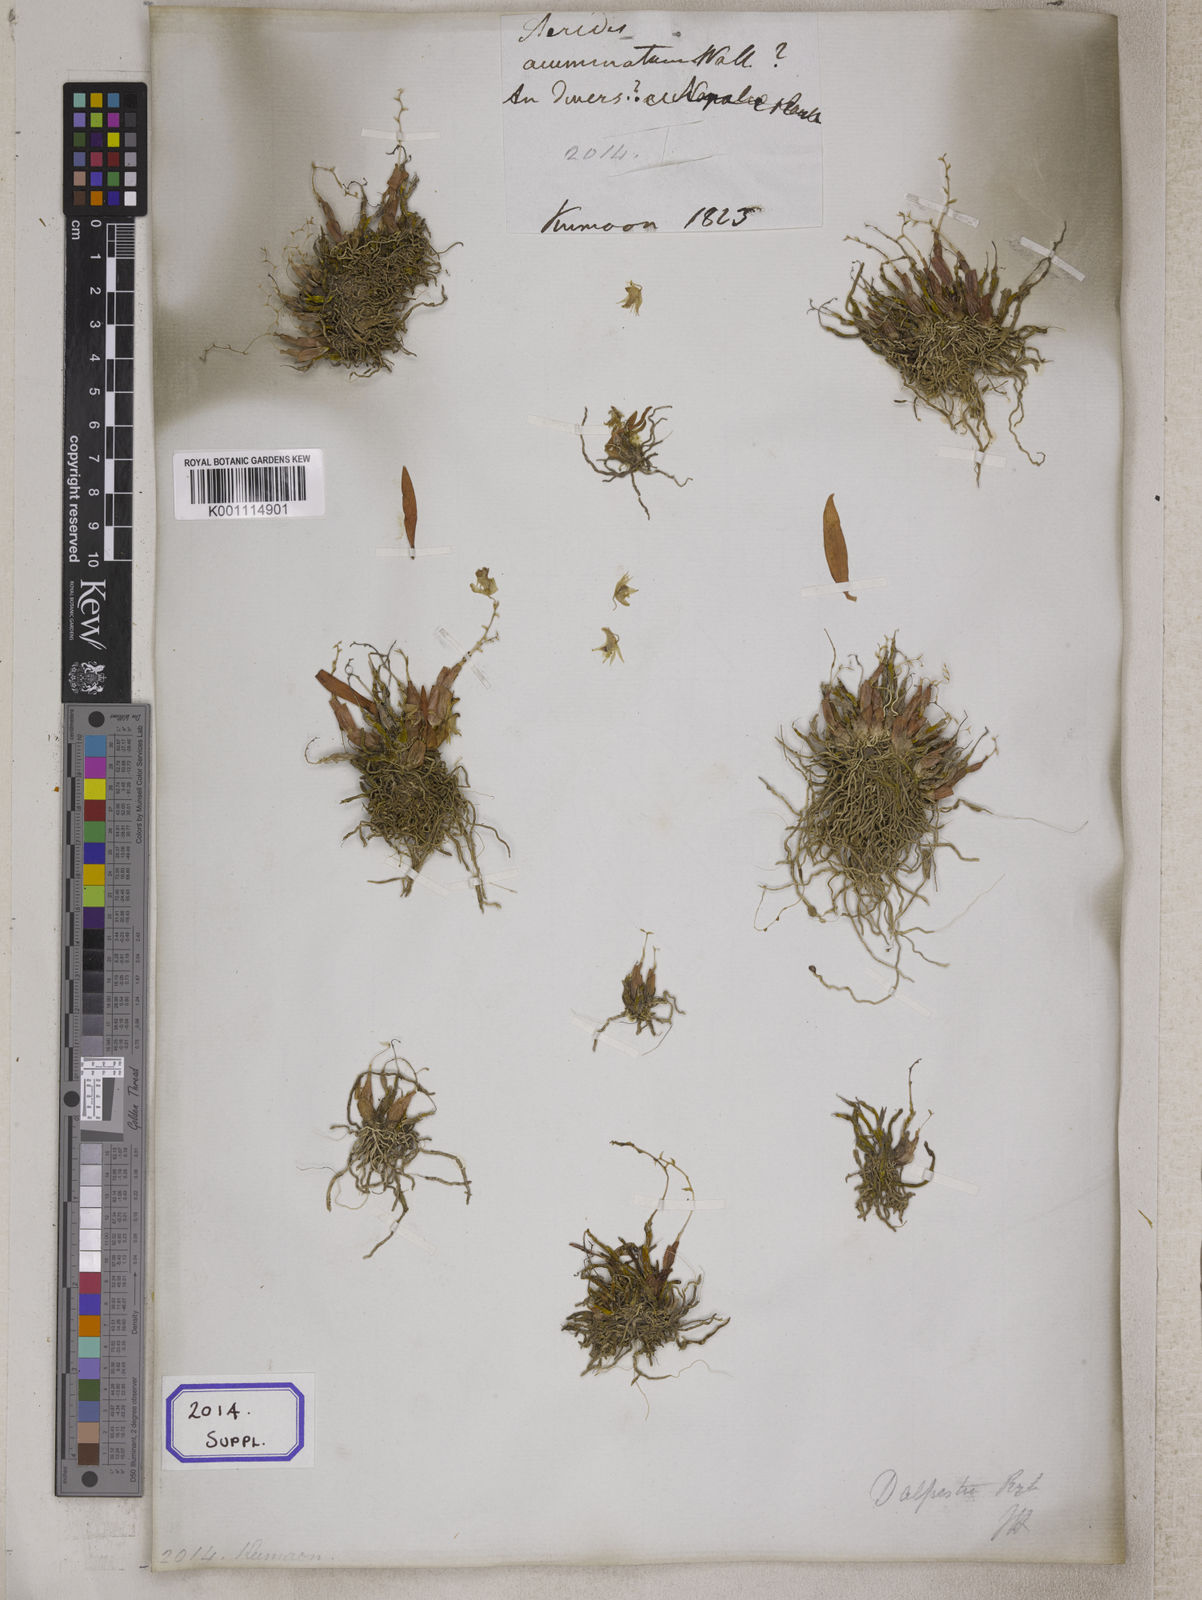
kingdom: Plantae
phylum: Tracheophyta
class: Liliopsida
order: Asparagales
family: Orchidaceae
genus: Dendrobium
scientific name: Dendrobium denudans
